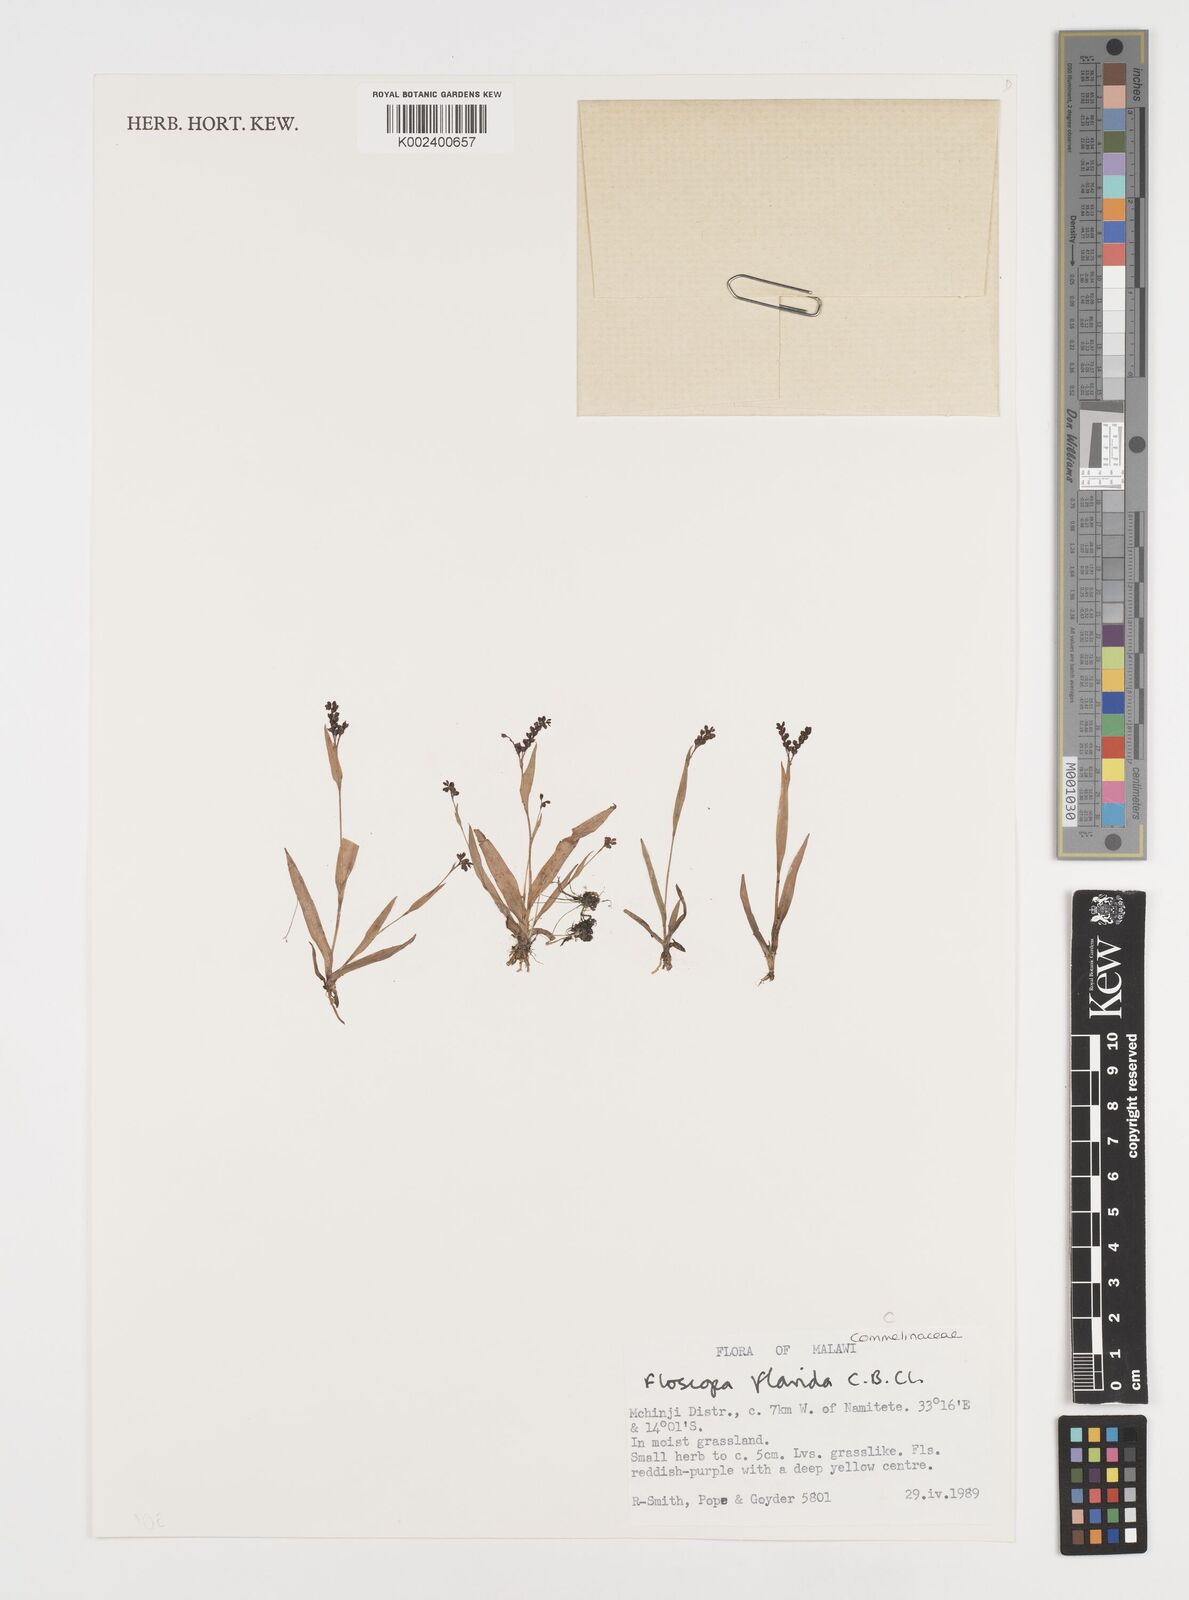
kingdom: Plantae
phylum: Tracheophyta
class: Liliopsida
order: Commelinales
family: Commelinaceae
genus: Floscopa
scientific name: Floscopa flavida
